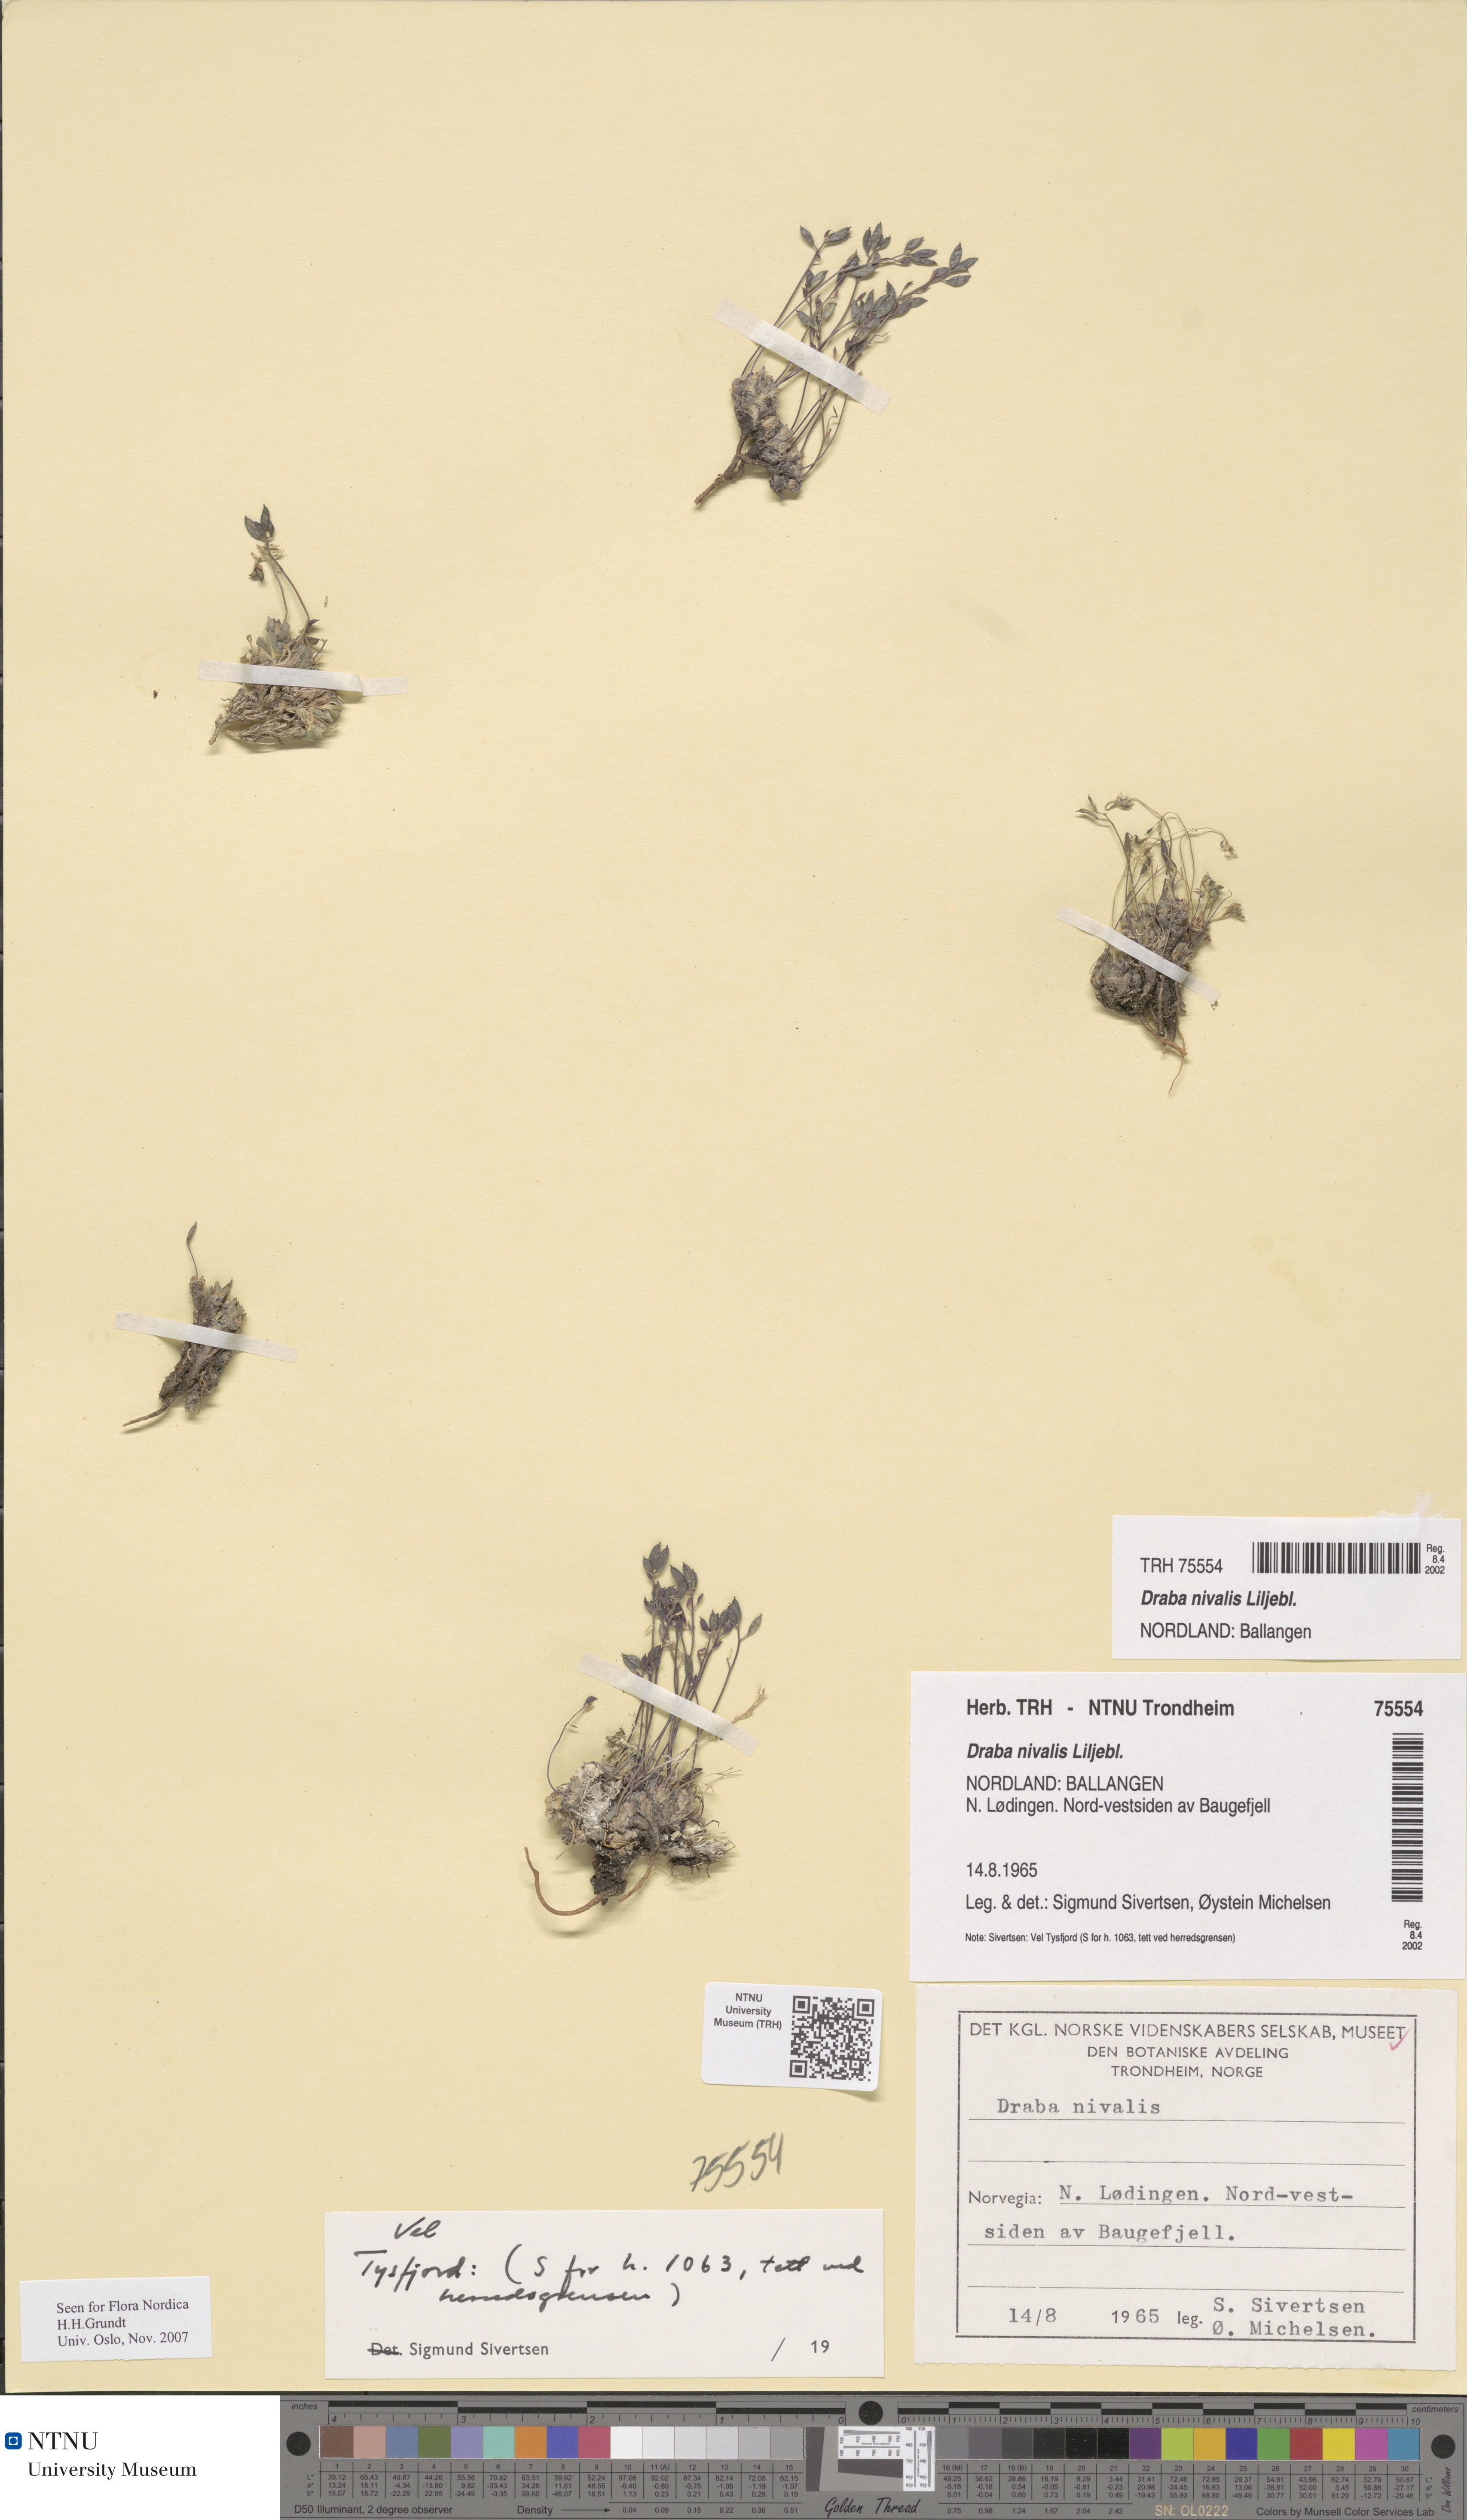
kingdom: Plantae
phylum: Tracheophyta
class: Magnoliopsida
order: Brassicales
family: Brassicaceae
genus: Draba
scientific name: Draba nivalis
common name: Snow draba
